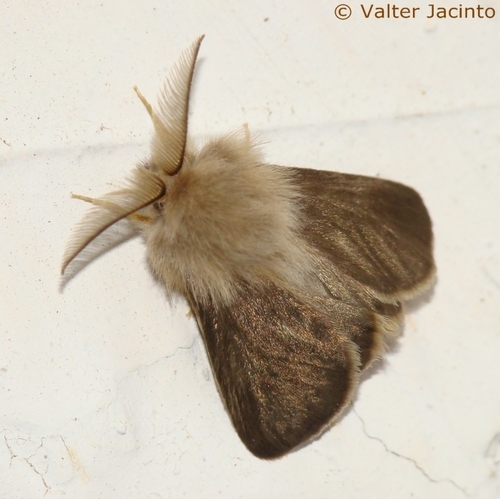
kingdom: Animalia
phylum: Arthropoda
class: Insecta
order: Lepidoptera
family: Psychidae
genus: Oiketicoides
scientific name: Oiketicoides febretta
